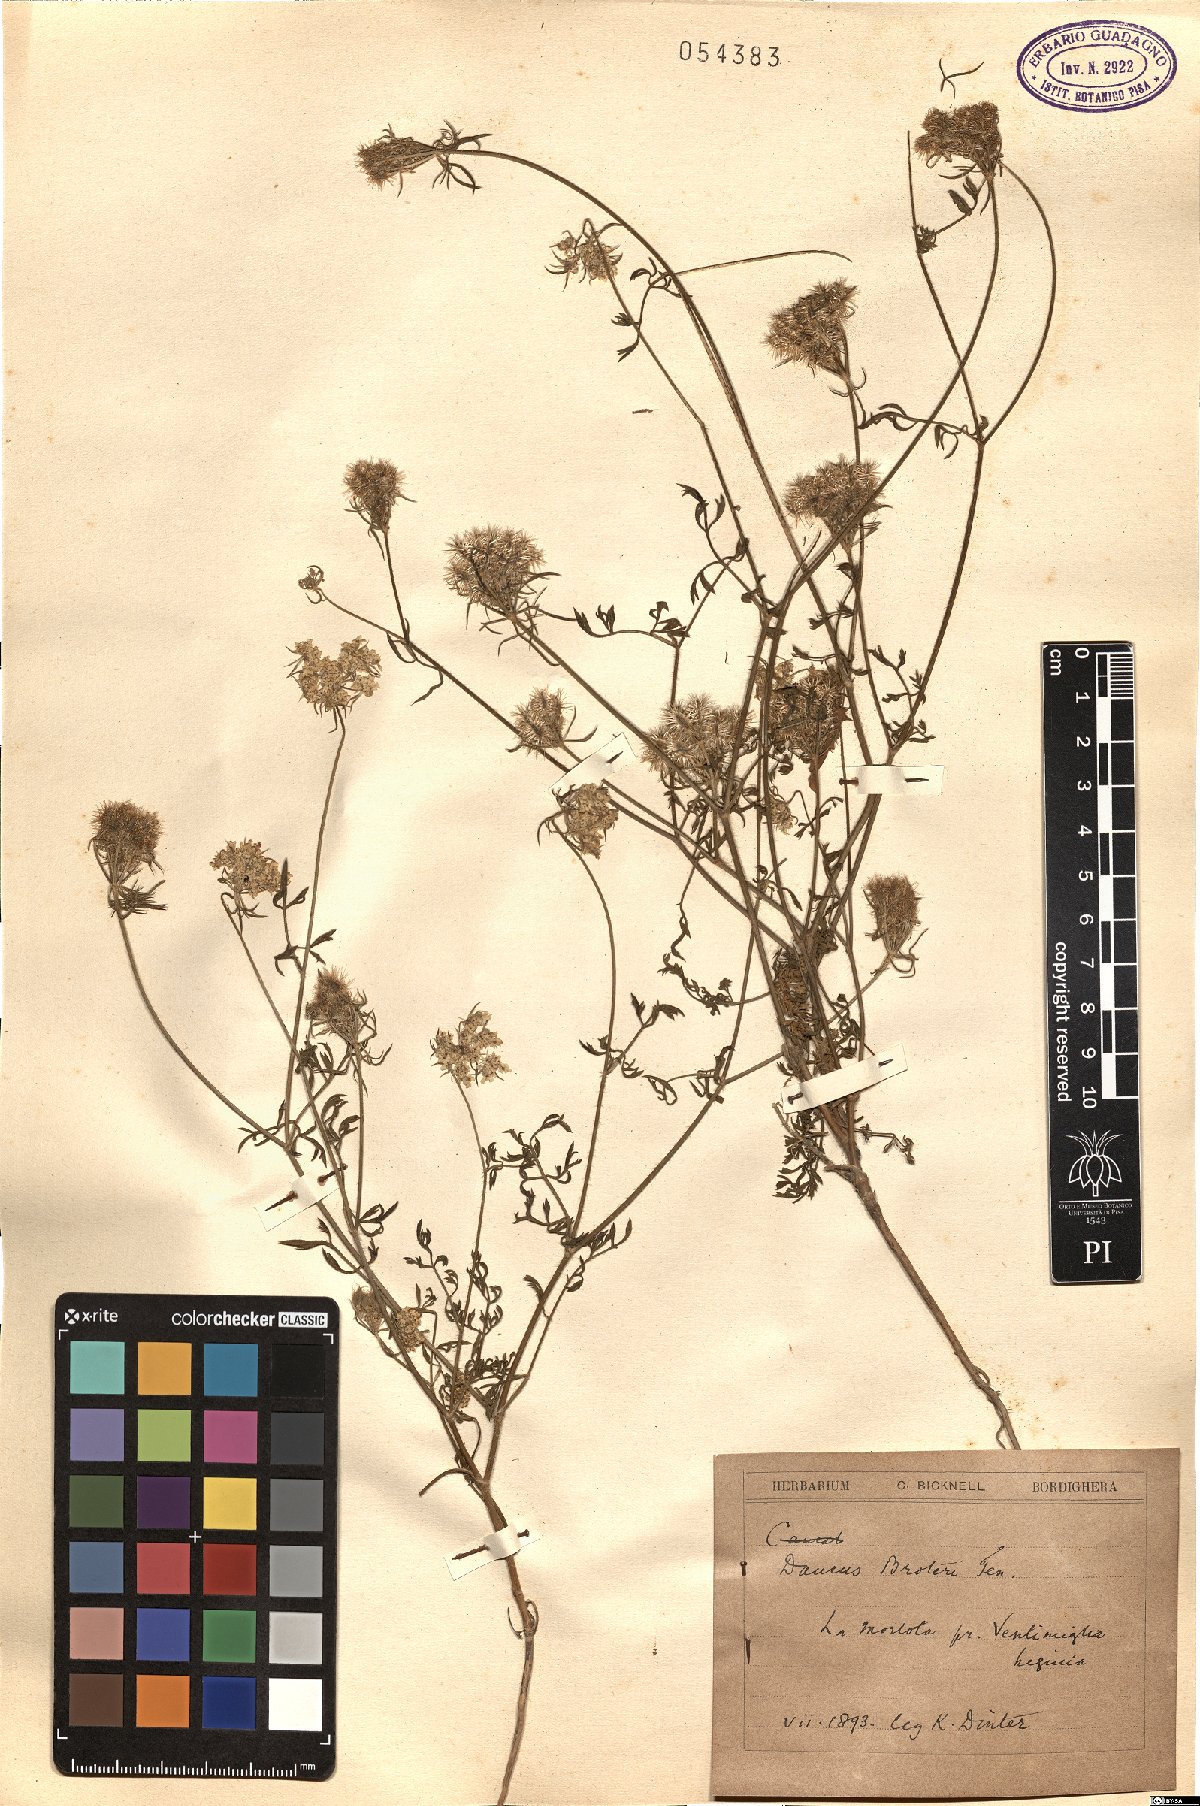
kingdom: Plantae
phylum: Tracheophyta
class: Magnoliopsida
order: Apiales
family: Apiaceae
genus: Daucus
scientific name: Daucus broteroi
